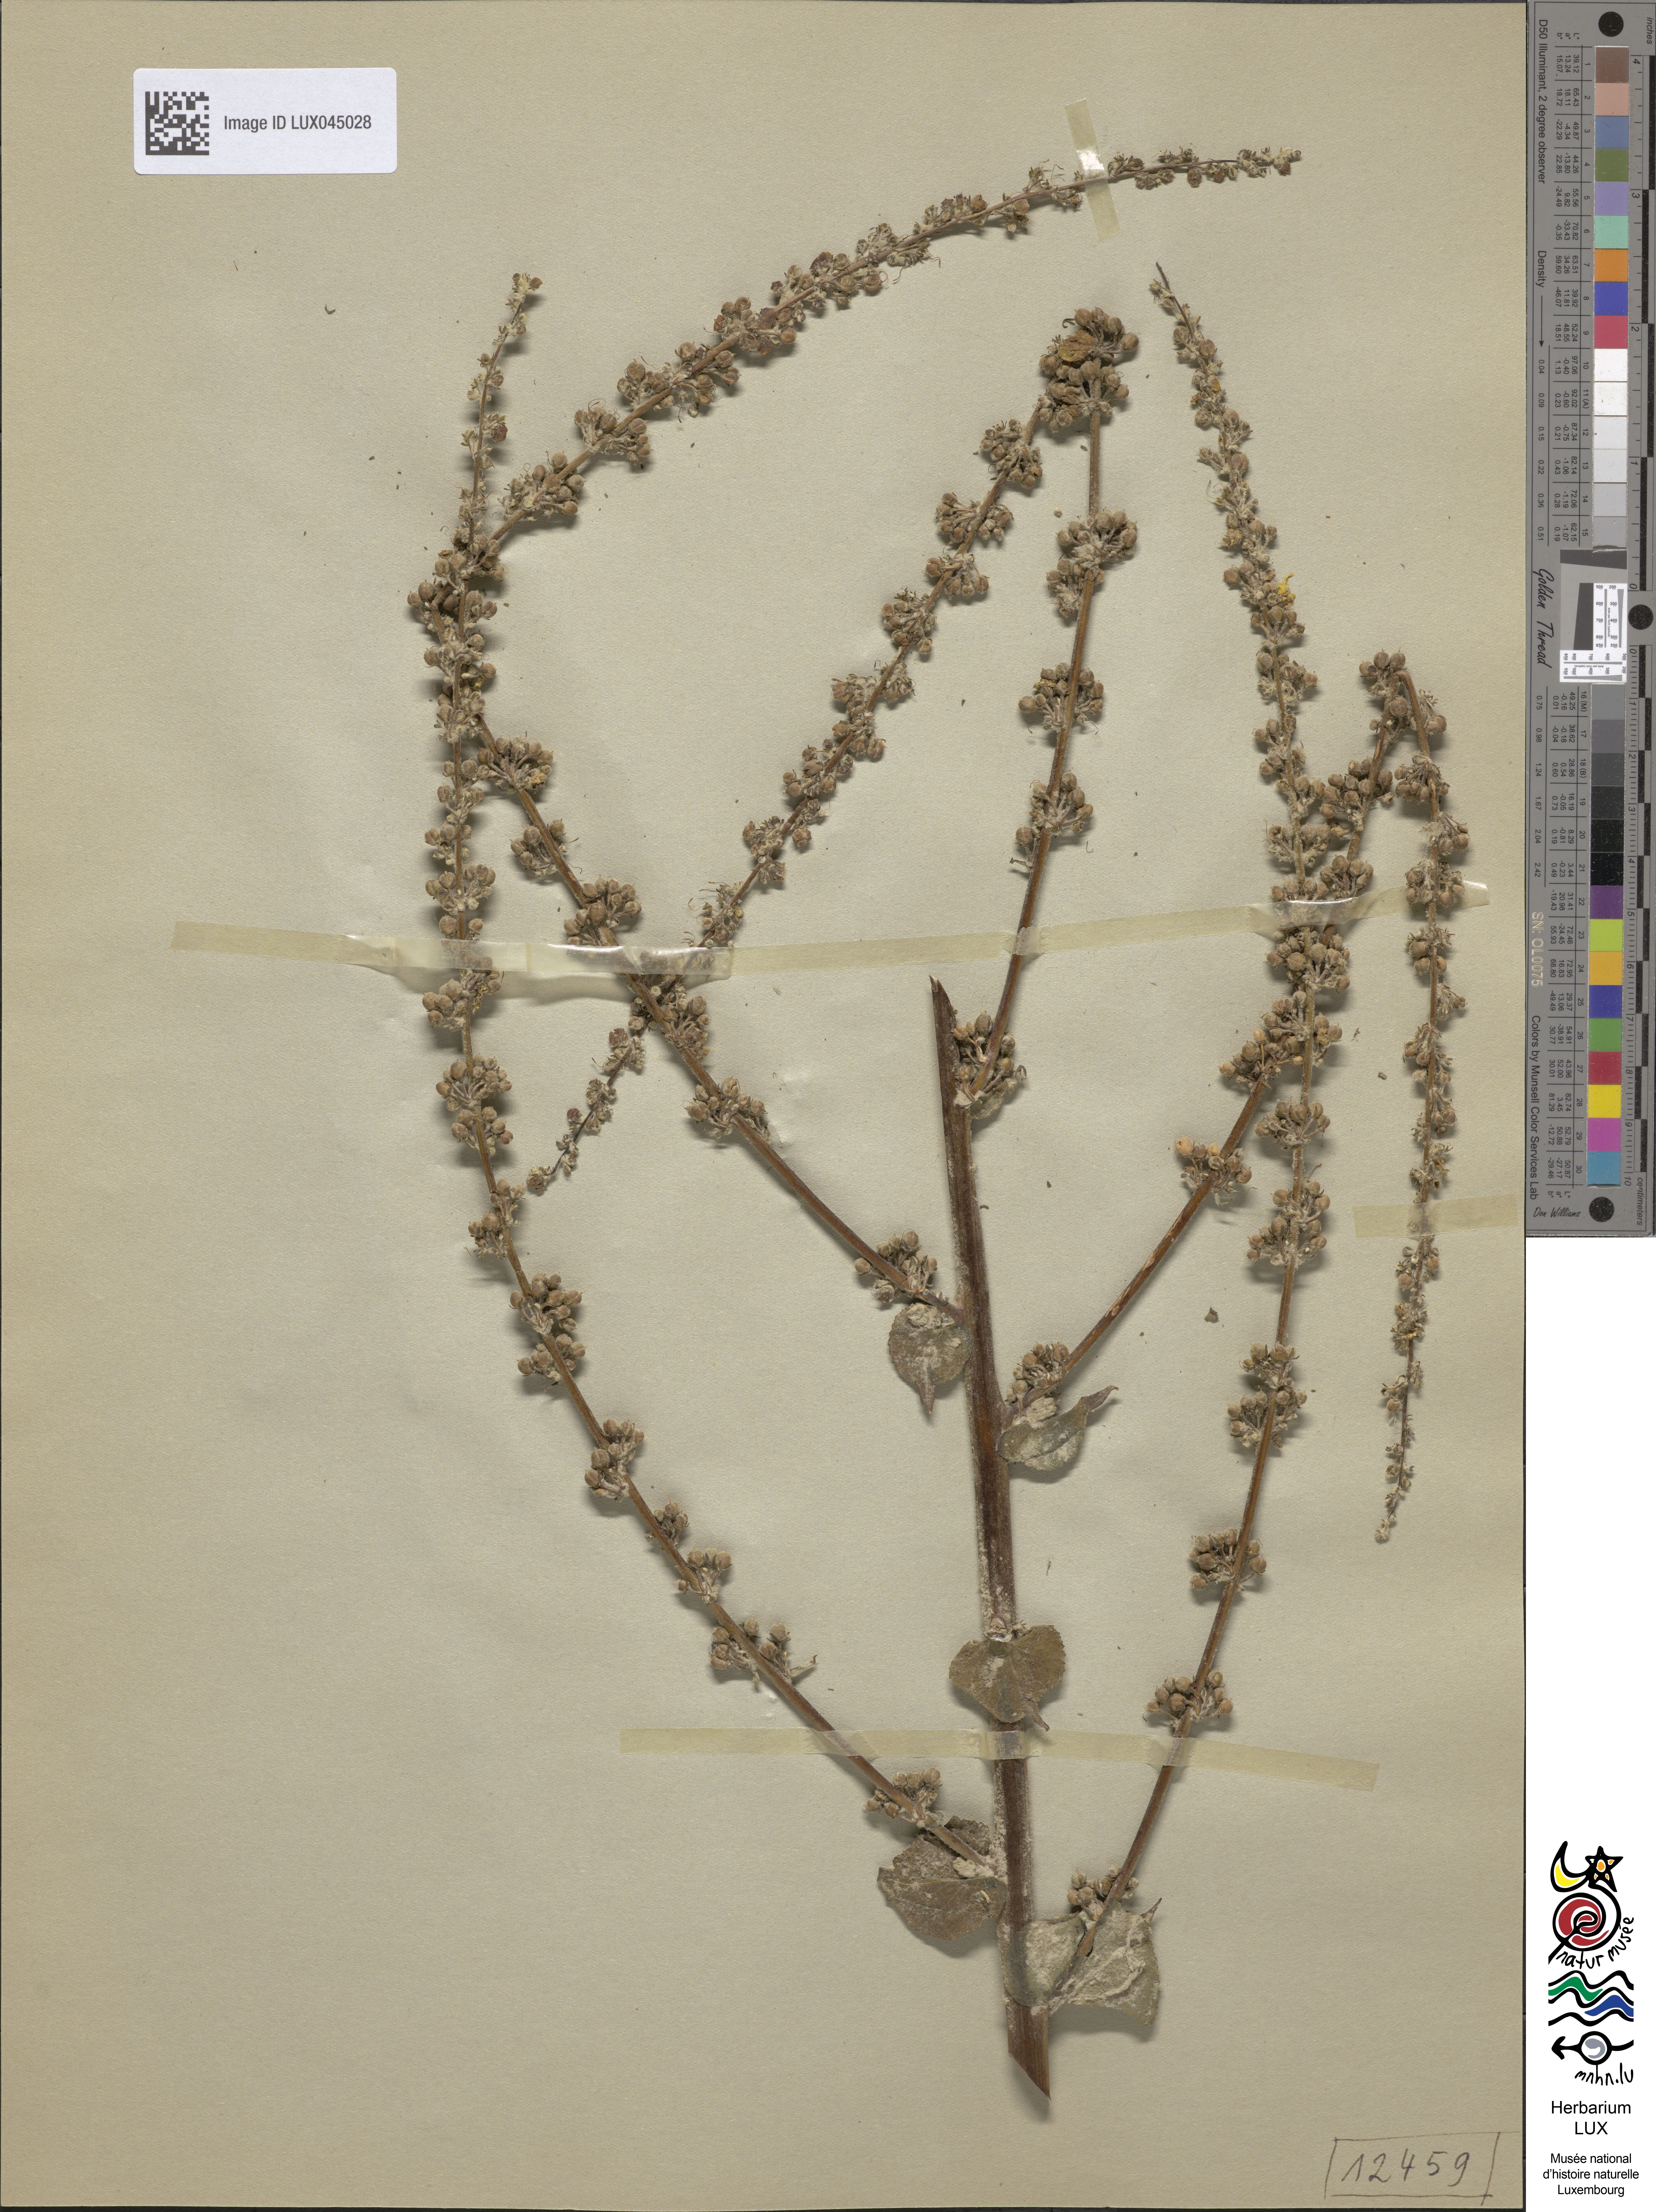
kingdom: Plantae
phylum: Tracheophyta
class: Magnoliopsida
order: Lamiales
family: Scrophulariaceae
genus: Verbascum
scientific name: Verbascum pulverulentum
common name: Broad-leaf mullein
